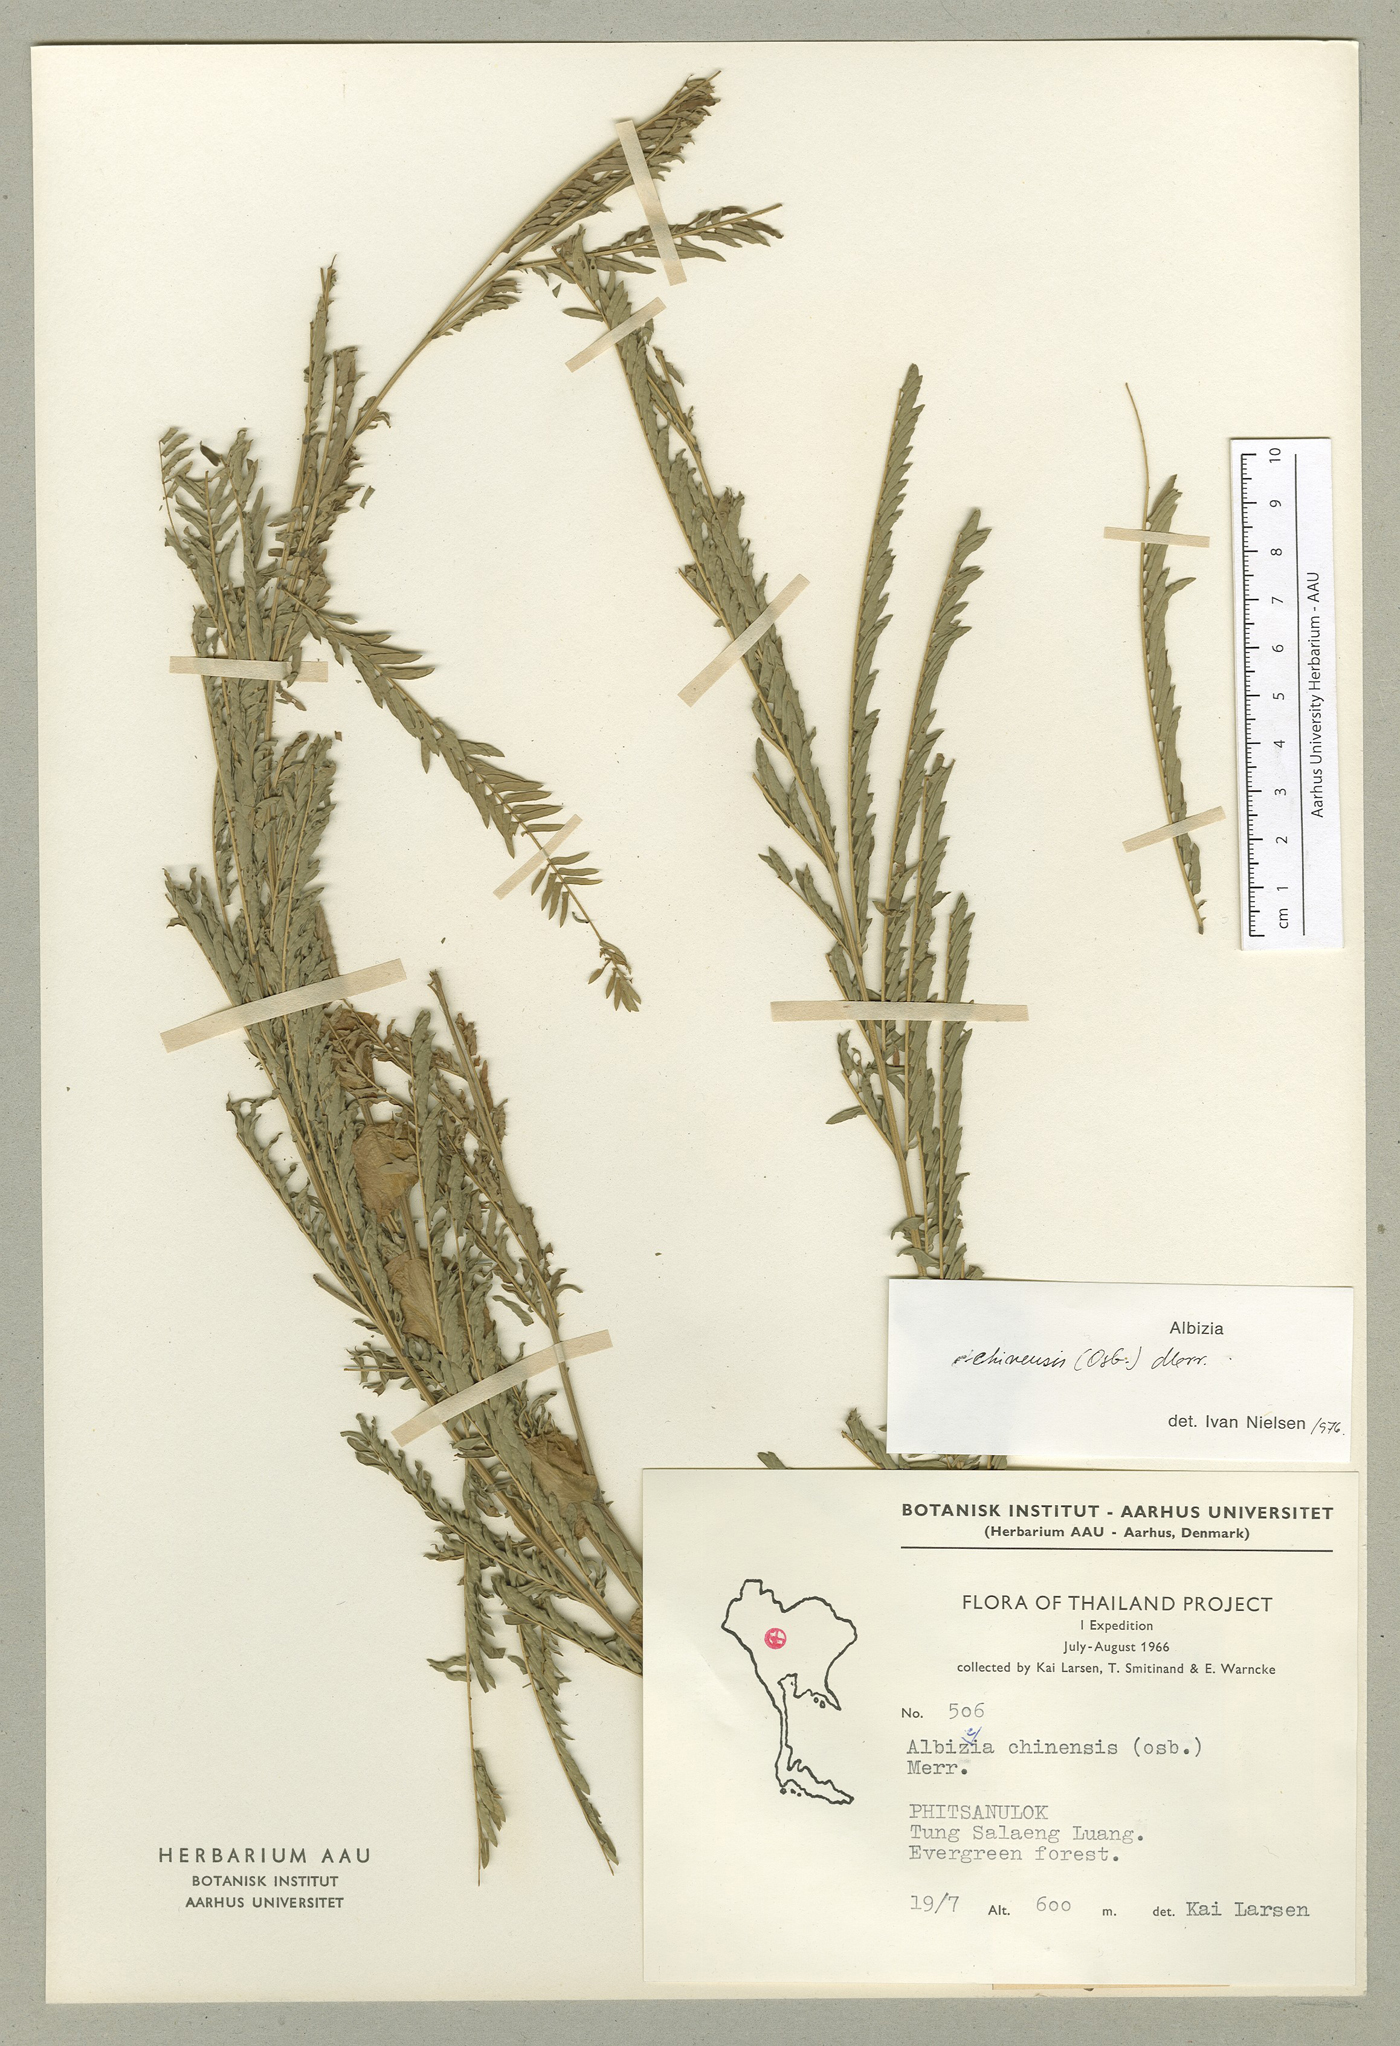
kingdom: Plantae
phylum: Tracheophyta
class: Magnoliopsida
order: Fabales
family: Fabaceae
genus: Albizia
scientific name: Albizia chinensis
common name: Chinese albizia
